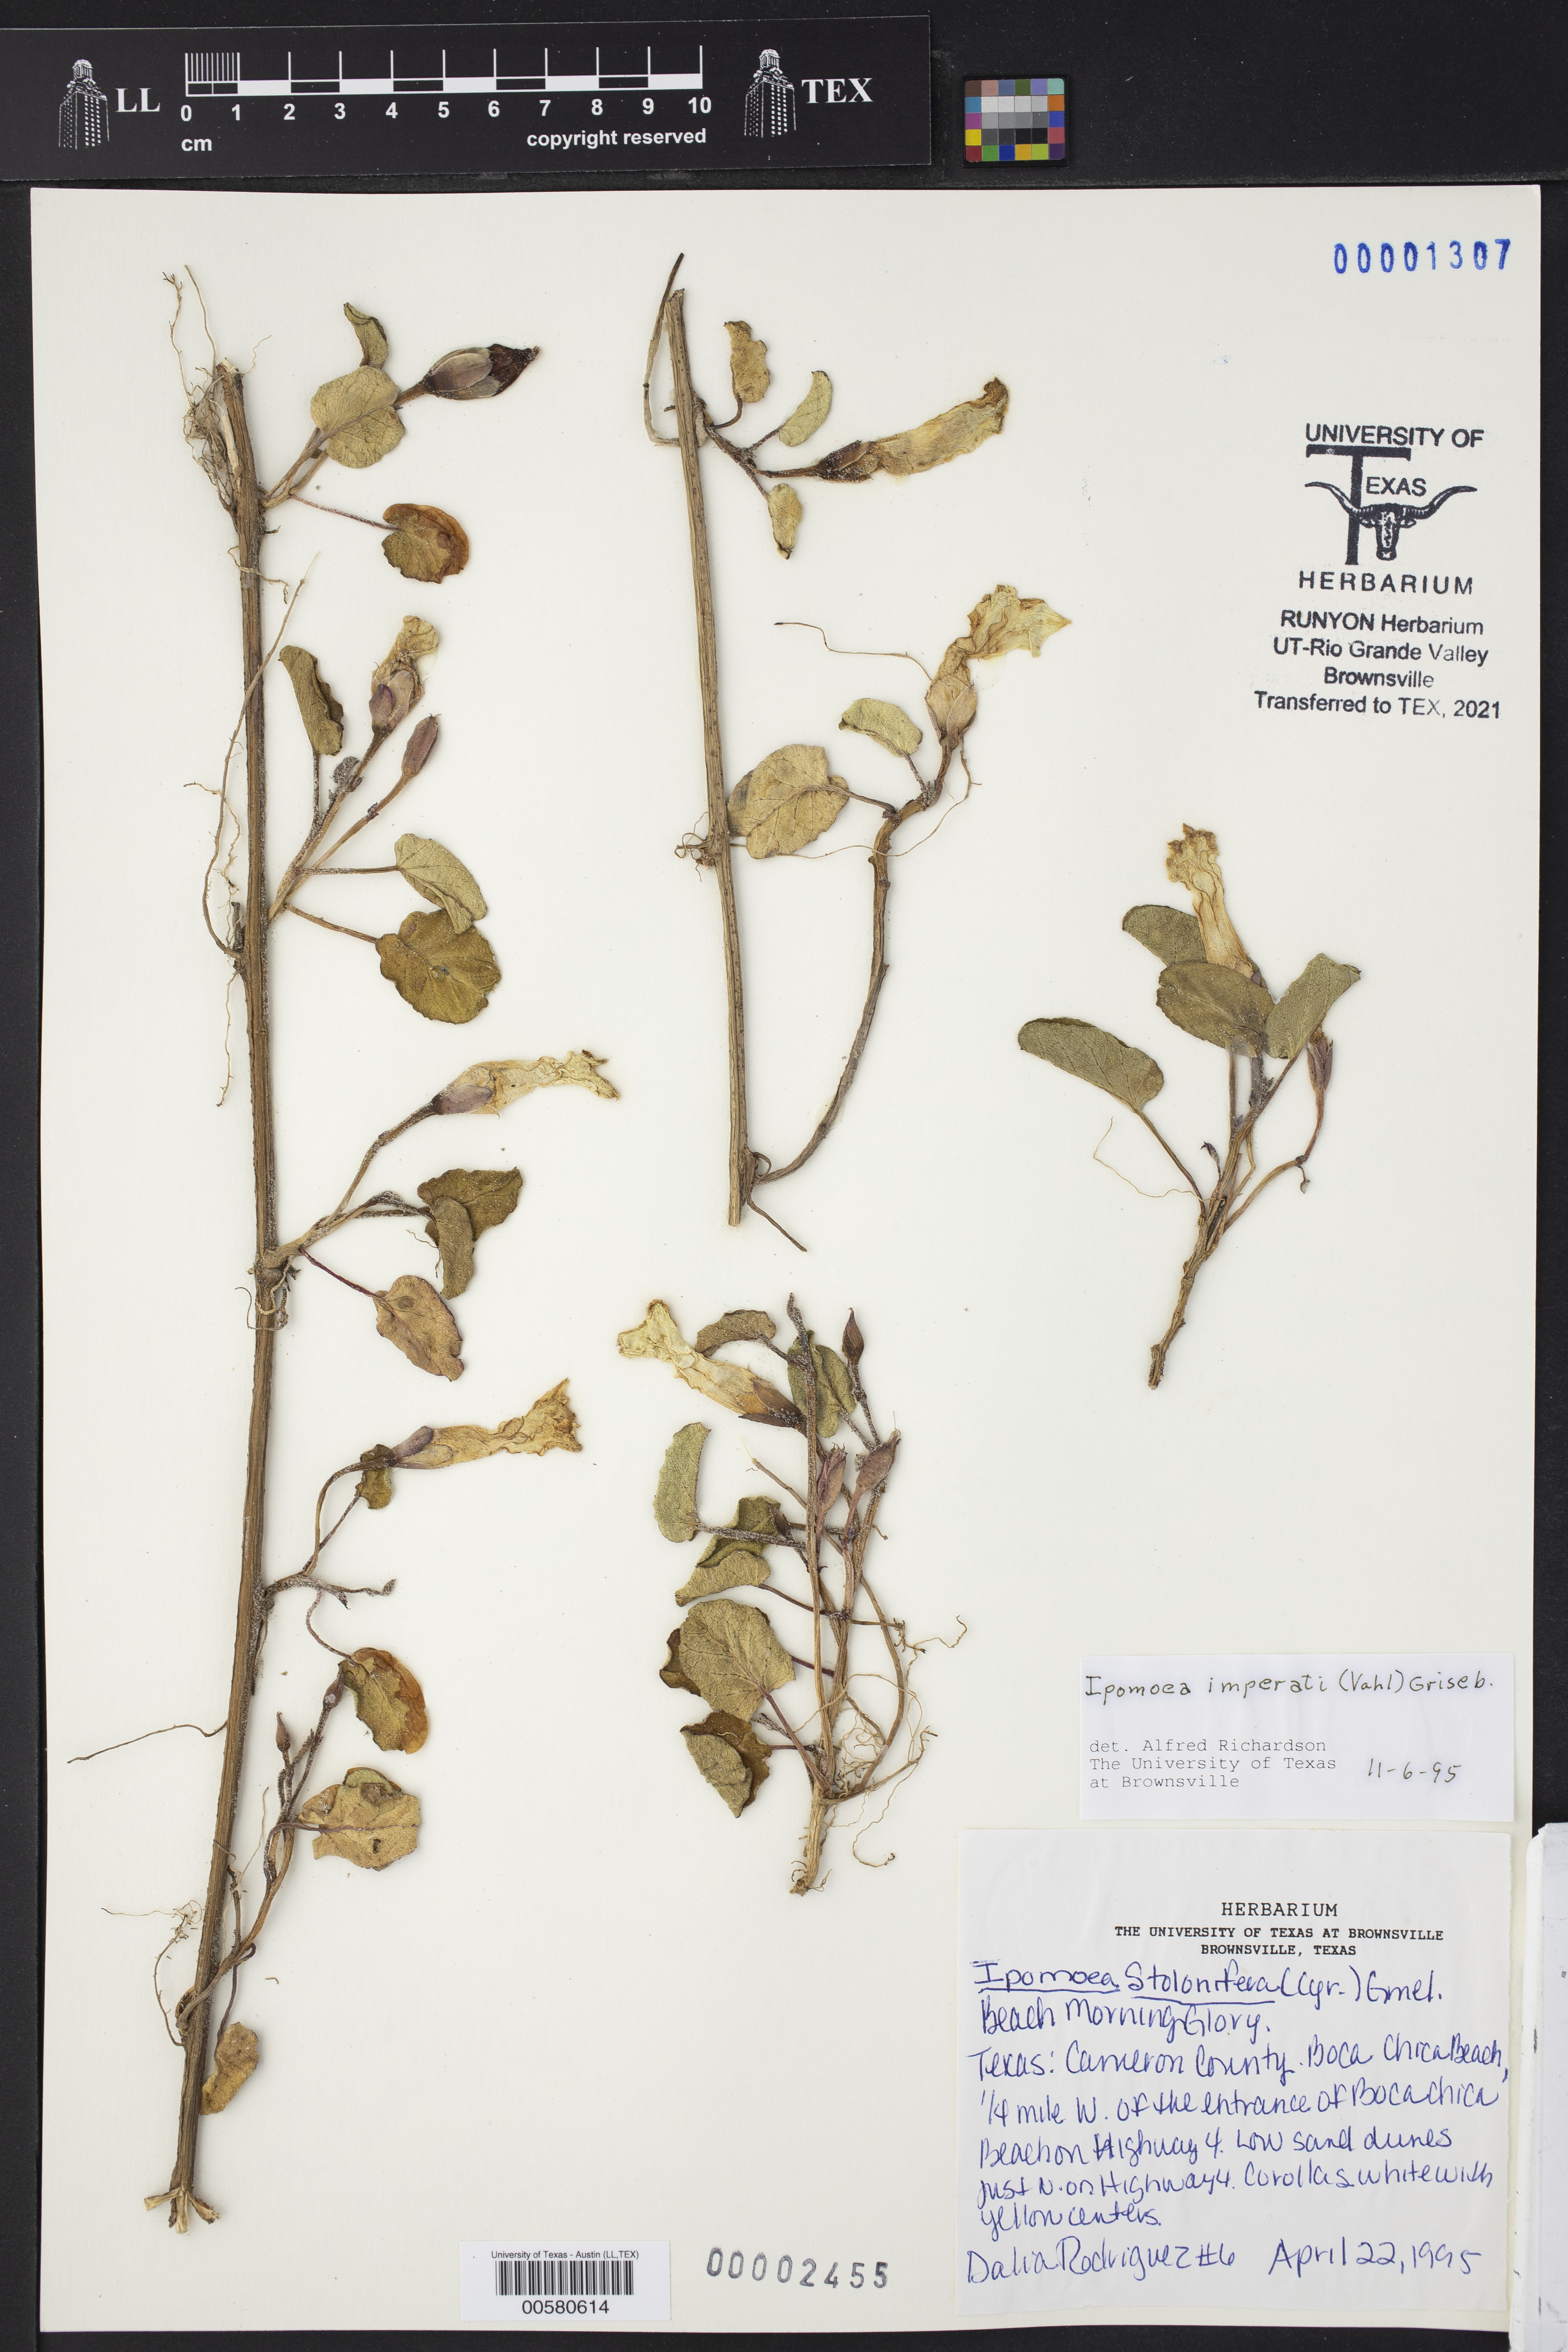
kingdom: Plantae
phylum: Tracheophyta
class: Magnoliopsida
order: Solanales
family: Convolvulaceae
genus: Ipomoea
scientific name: Ipomoea imperati
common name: Fiddle-leaf morning-glory
